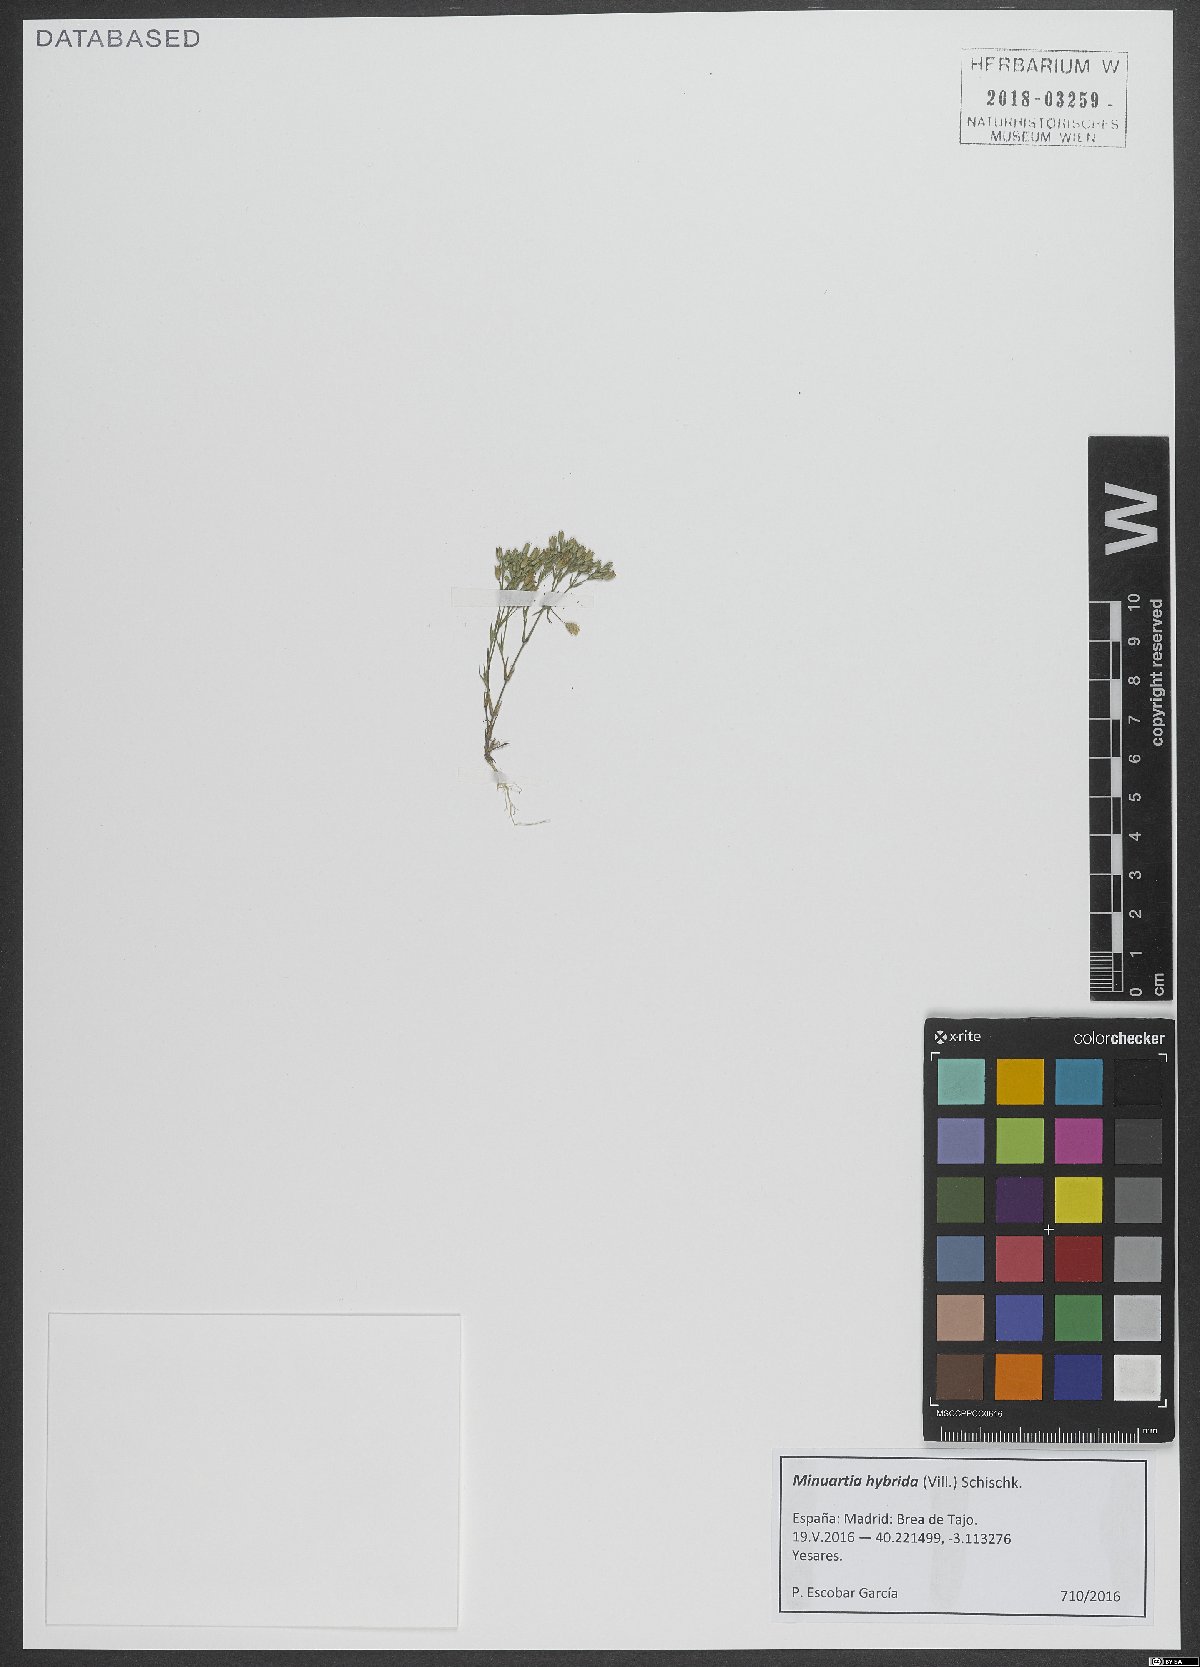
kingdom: Plantae
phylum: Tracheophyta
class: Magnoliopsida
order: Caryophyllales
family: Caryophyllaceae
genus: Sabulina
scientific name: Sabulina tenuifolia
